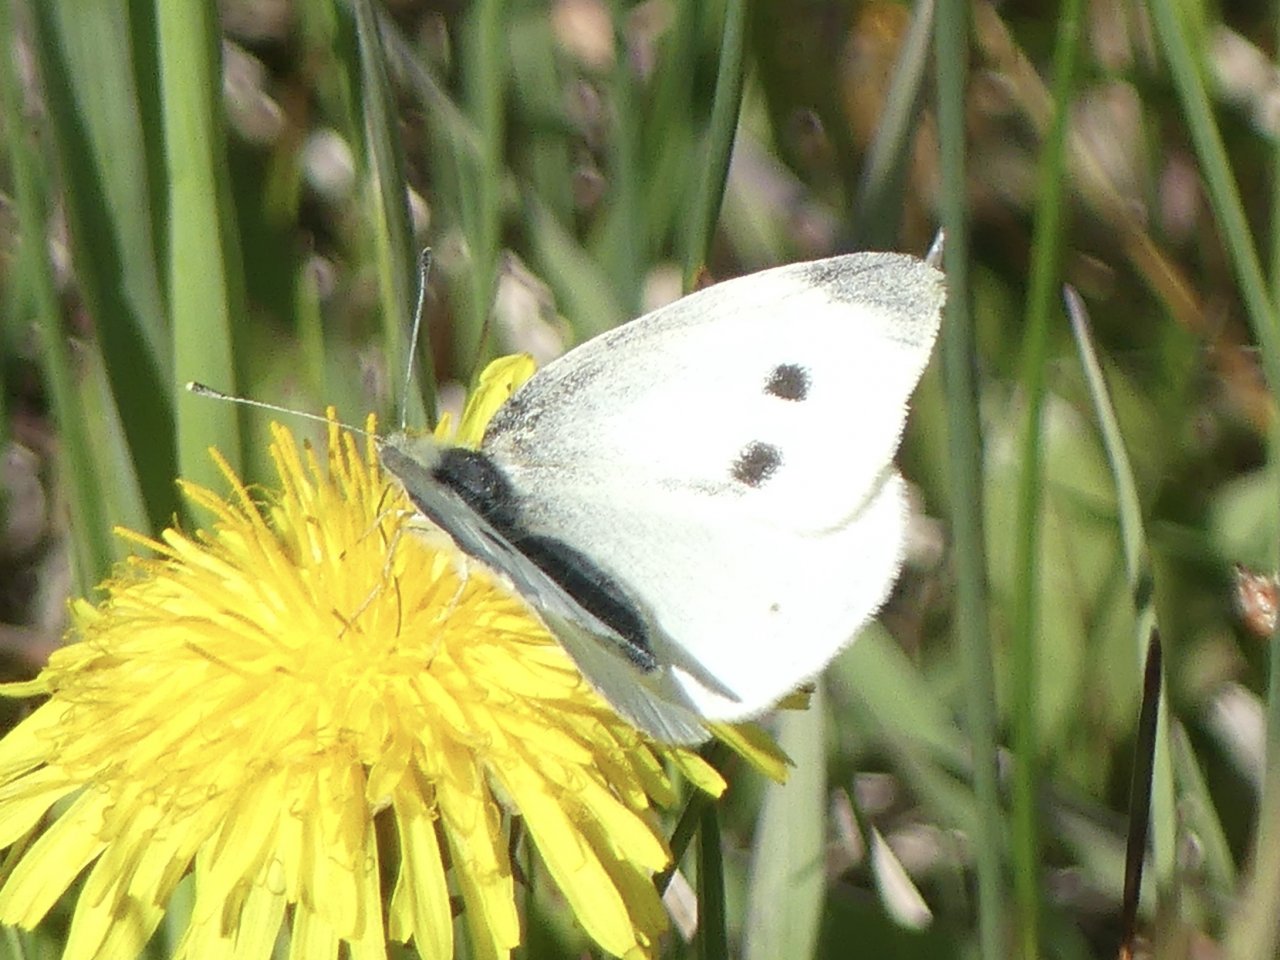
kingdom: Animalia
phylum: Arthropoda
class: Insecta
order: Lepidoptera
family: Pieridae
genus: Pieris
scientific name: Pieris rapae
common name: Cabbage White
